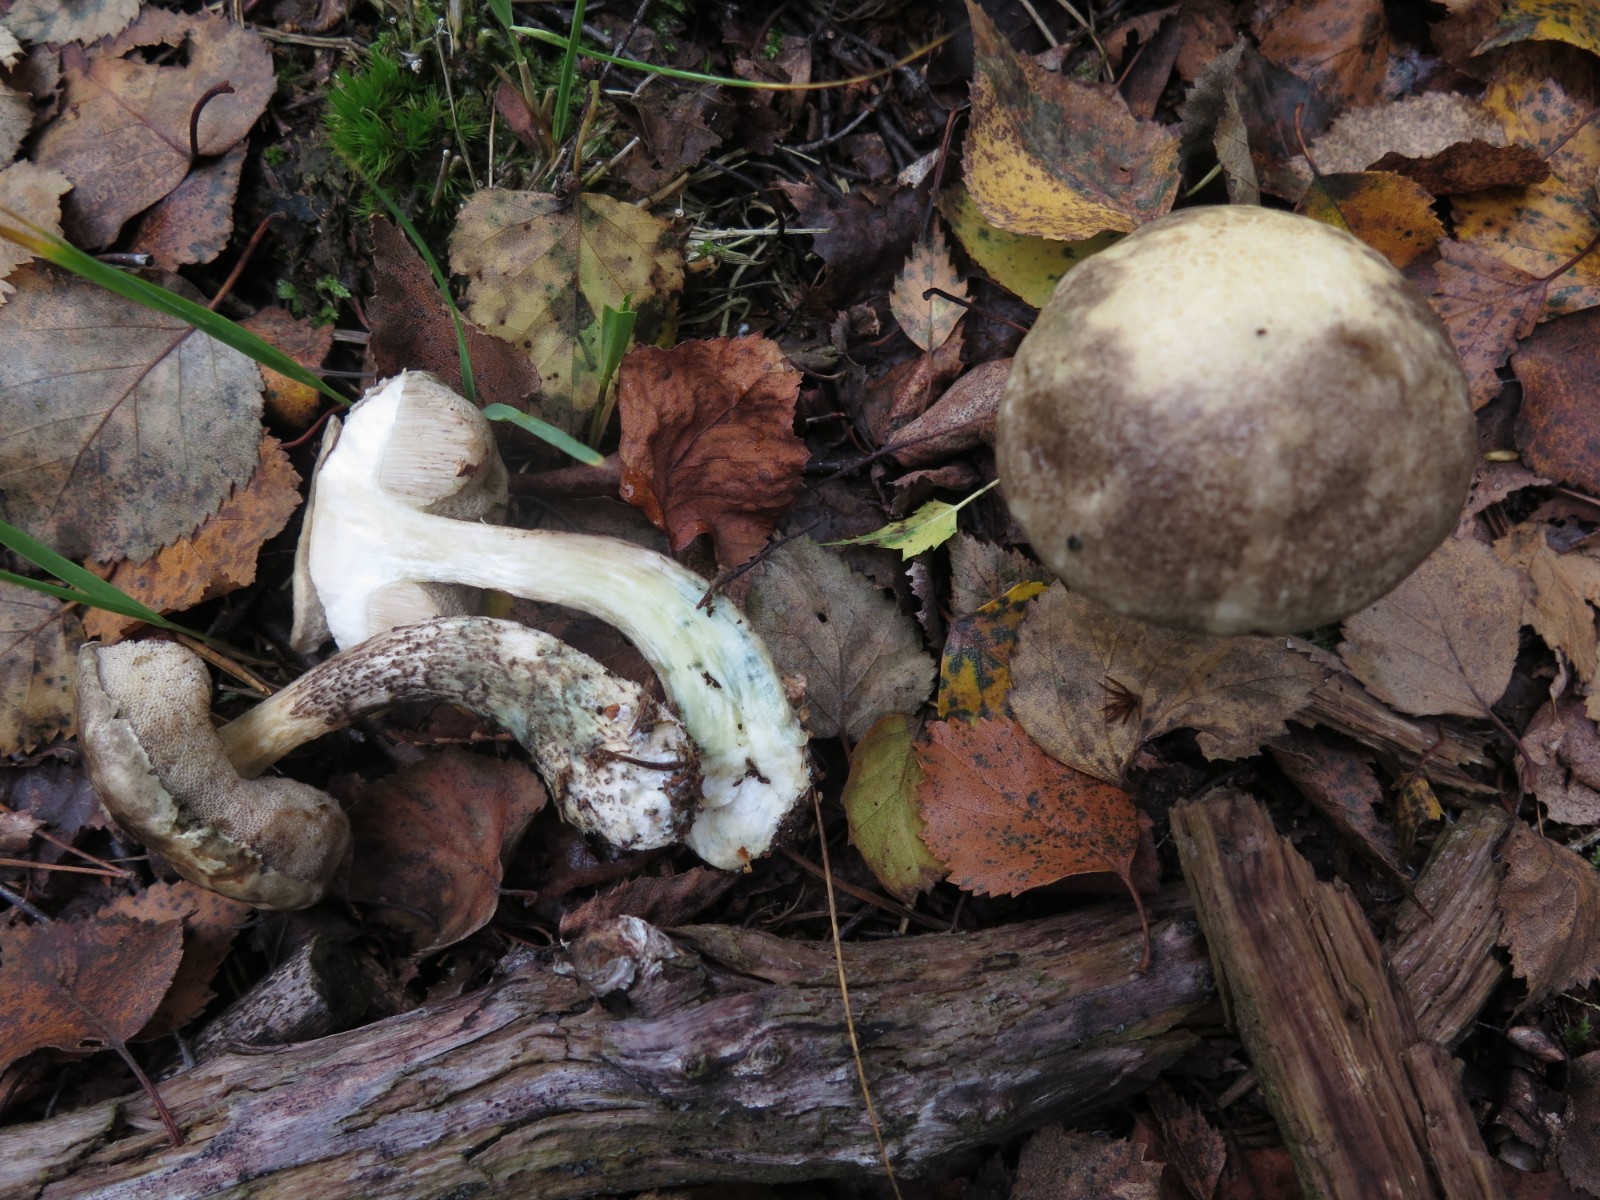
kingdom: Fungi
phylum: Basidiomycota
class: Agaricomycetes
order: Boletales
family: Boletaceae
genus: Leccinum
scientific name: Leccinum variicolor
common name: flammet skælrørhat
